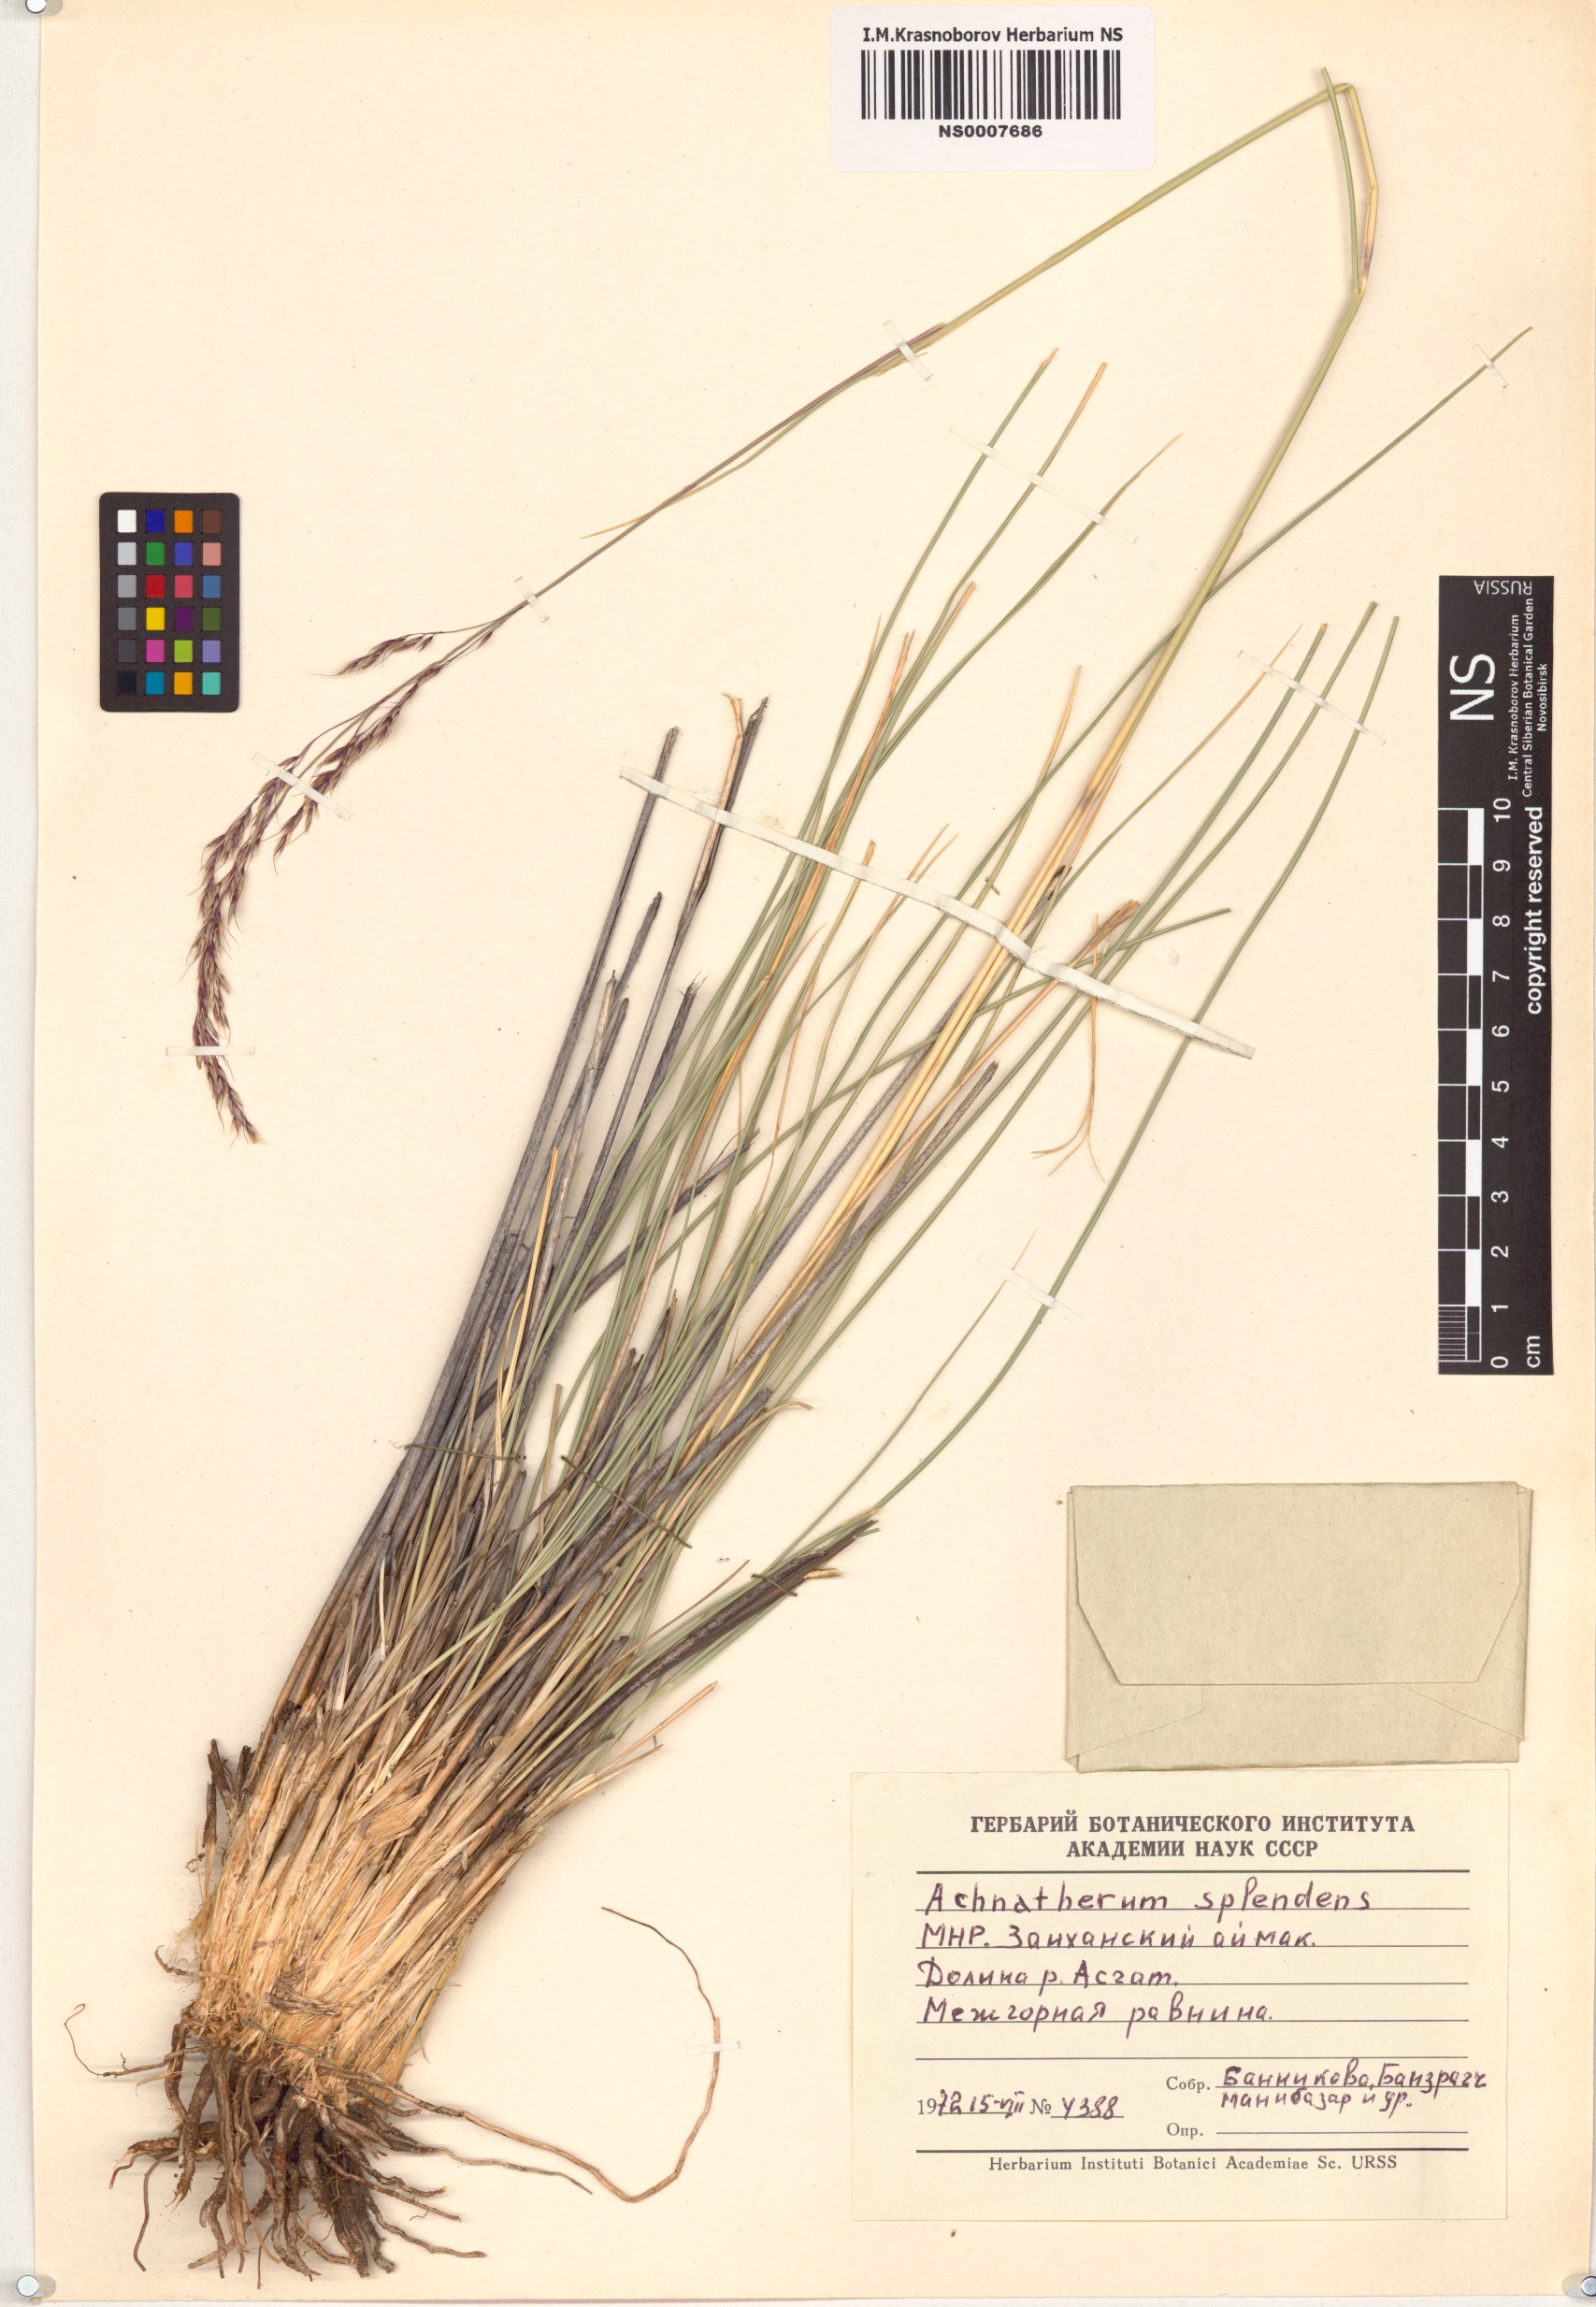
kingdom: Plantae
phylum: Tracheophyta
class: Liliopsida
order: Poales
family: Poaceae
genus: Neotrinia
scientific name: Neotrinia splendens
